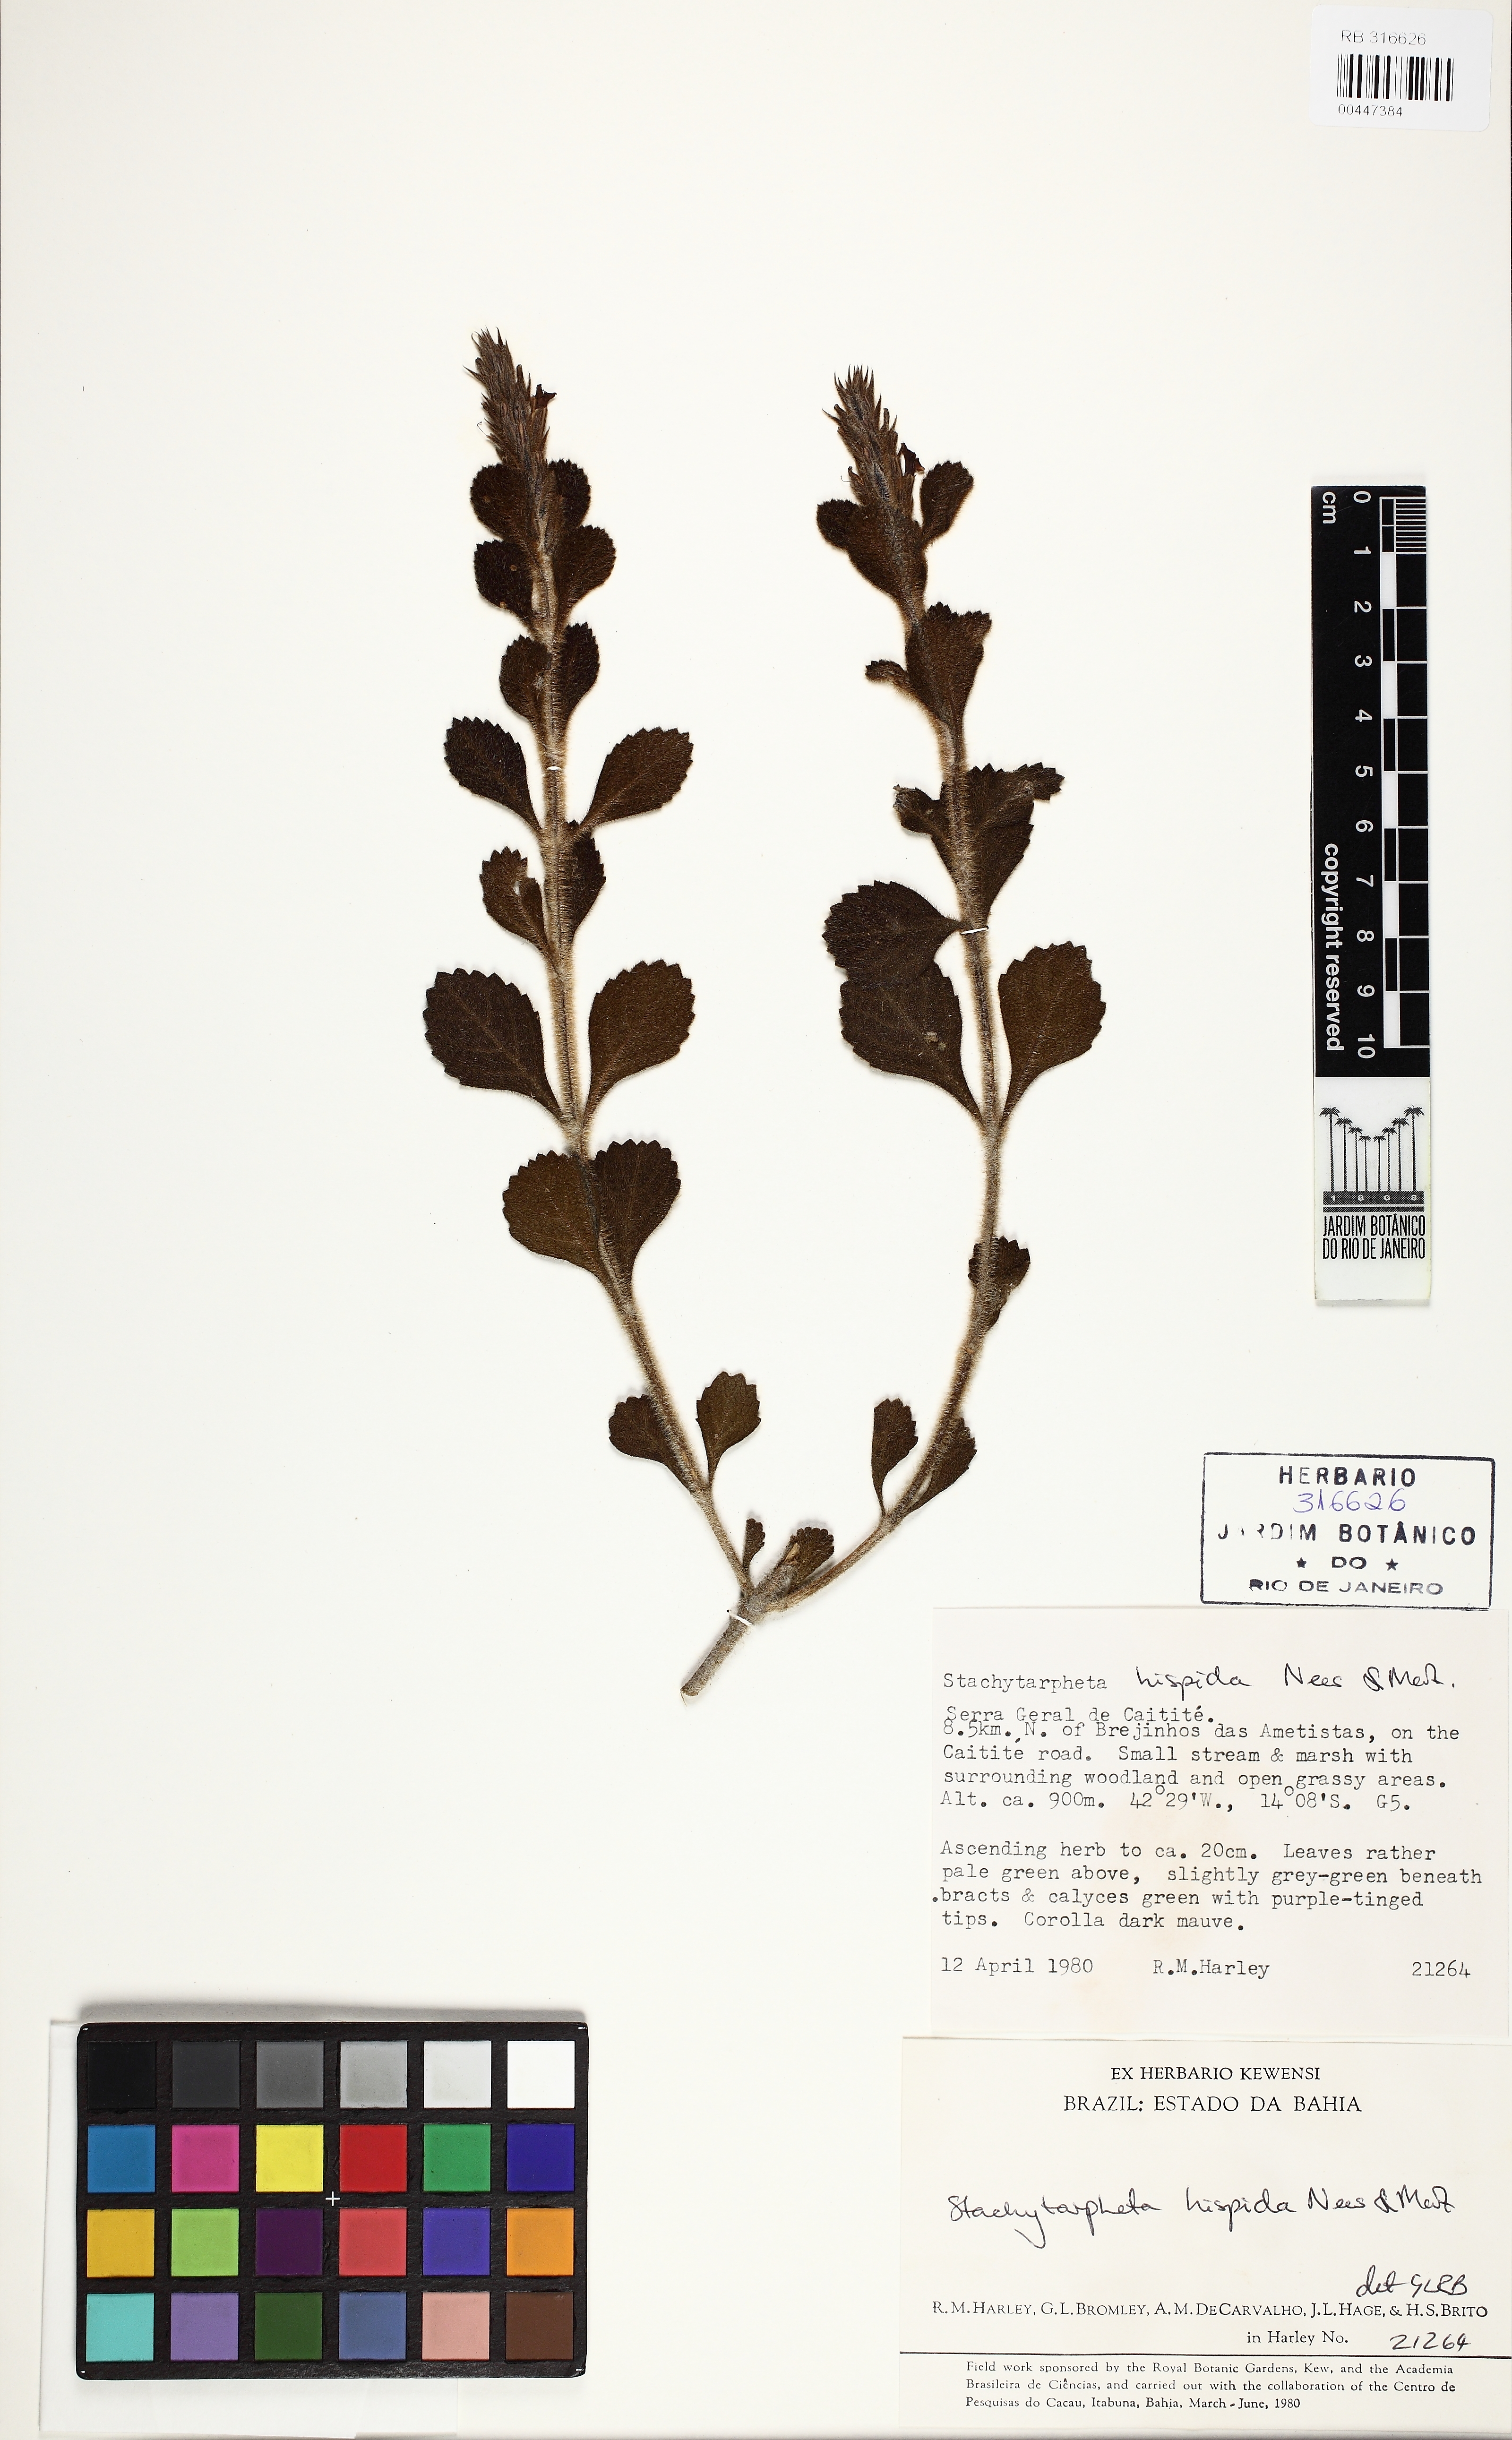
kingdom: Plantae
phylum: Tracheophyta
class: Magnoliopsida
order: Lamiales
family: Verbenaceae
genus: Stachytarpheta
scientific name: Stachytarpheta hispida
